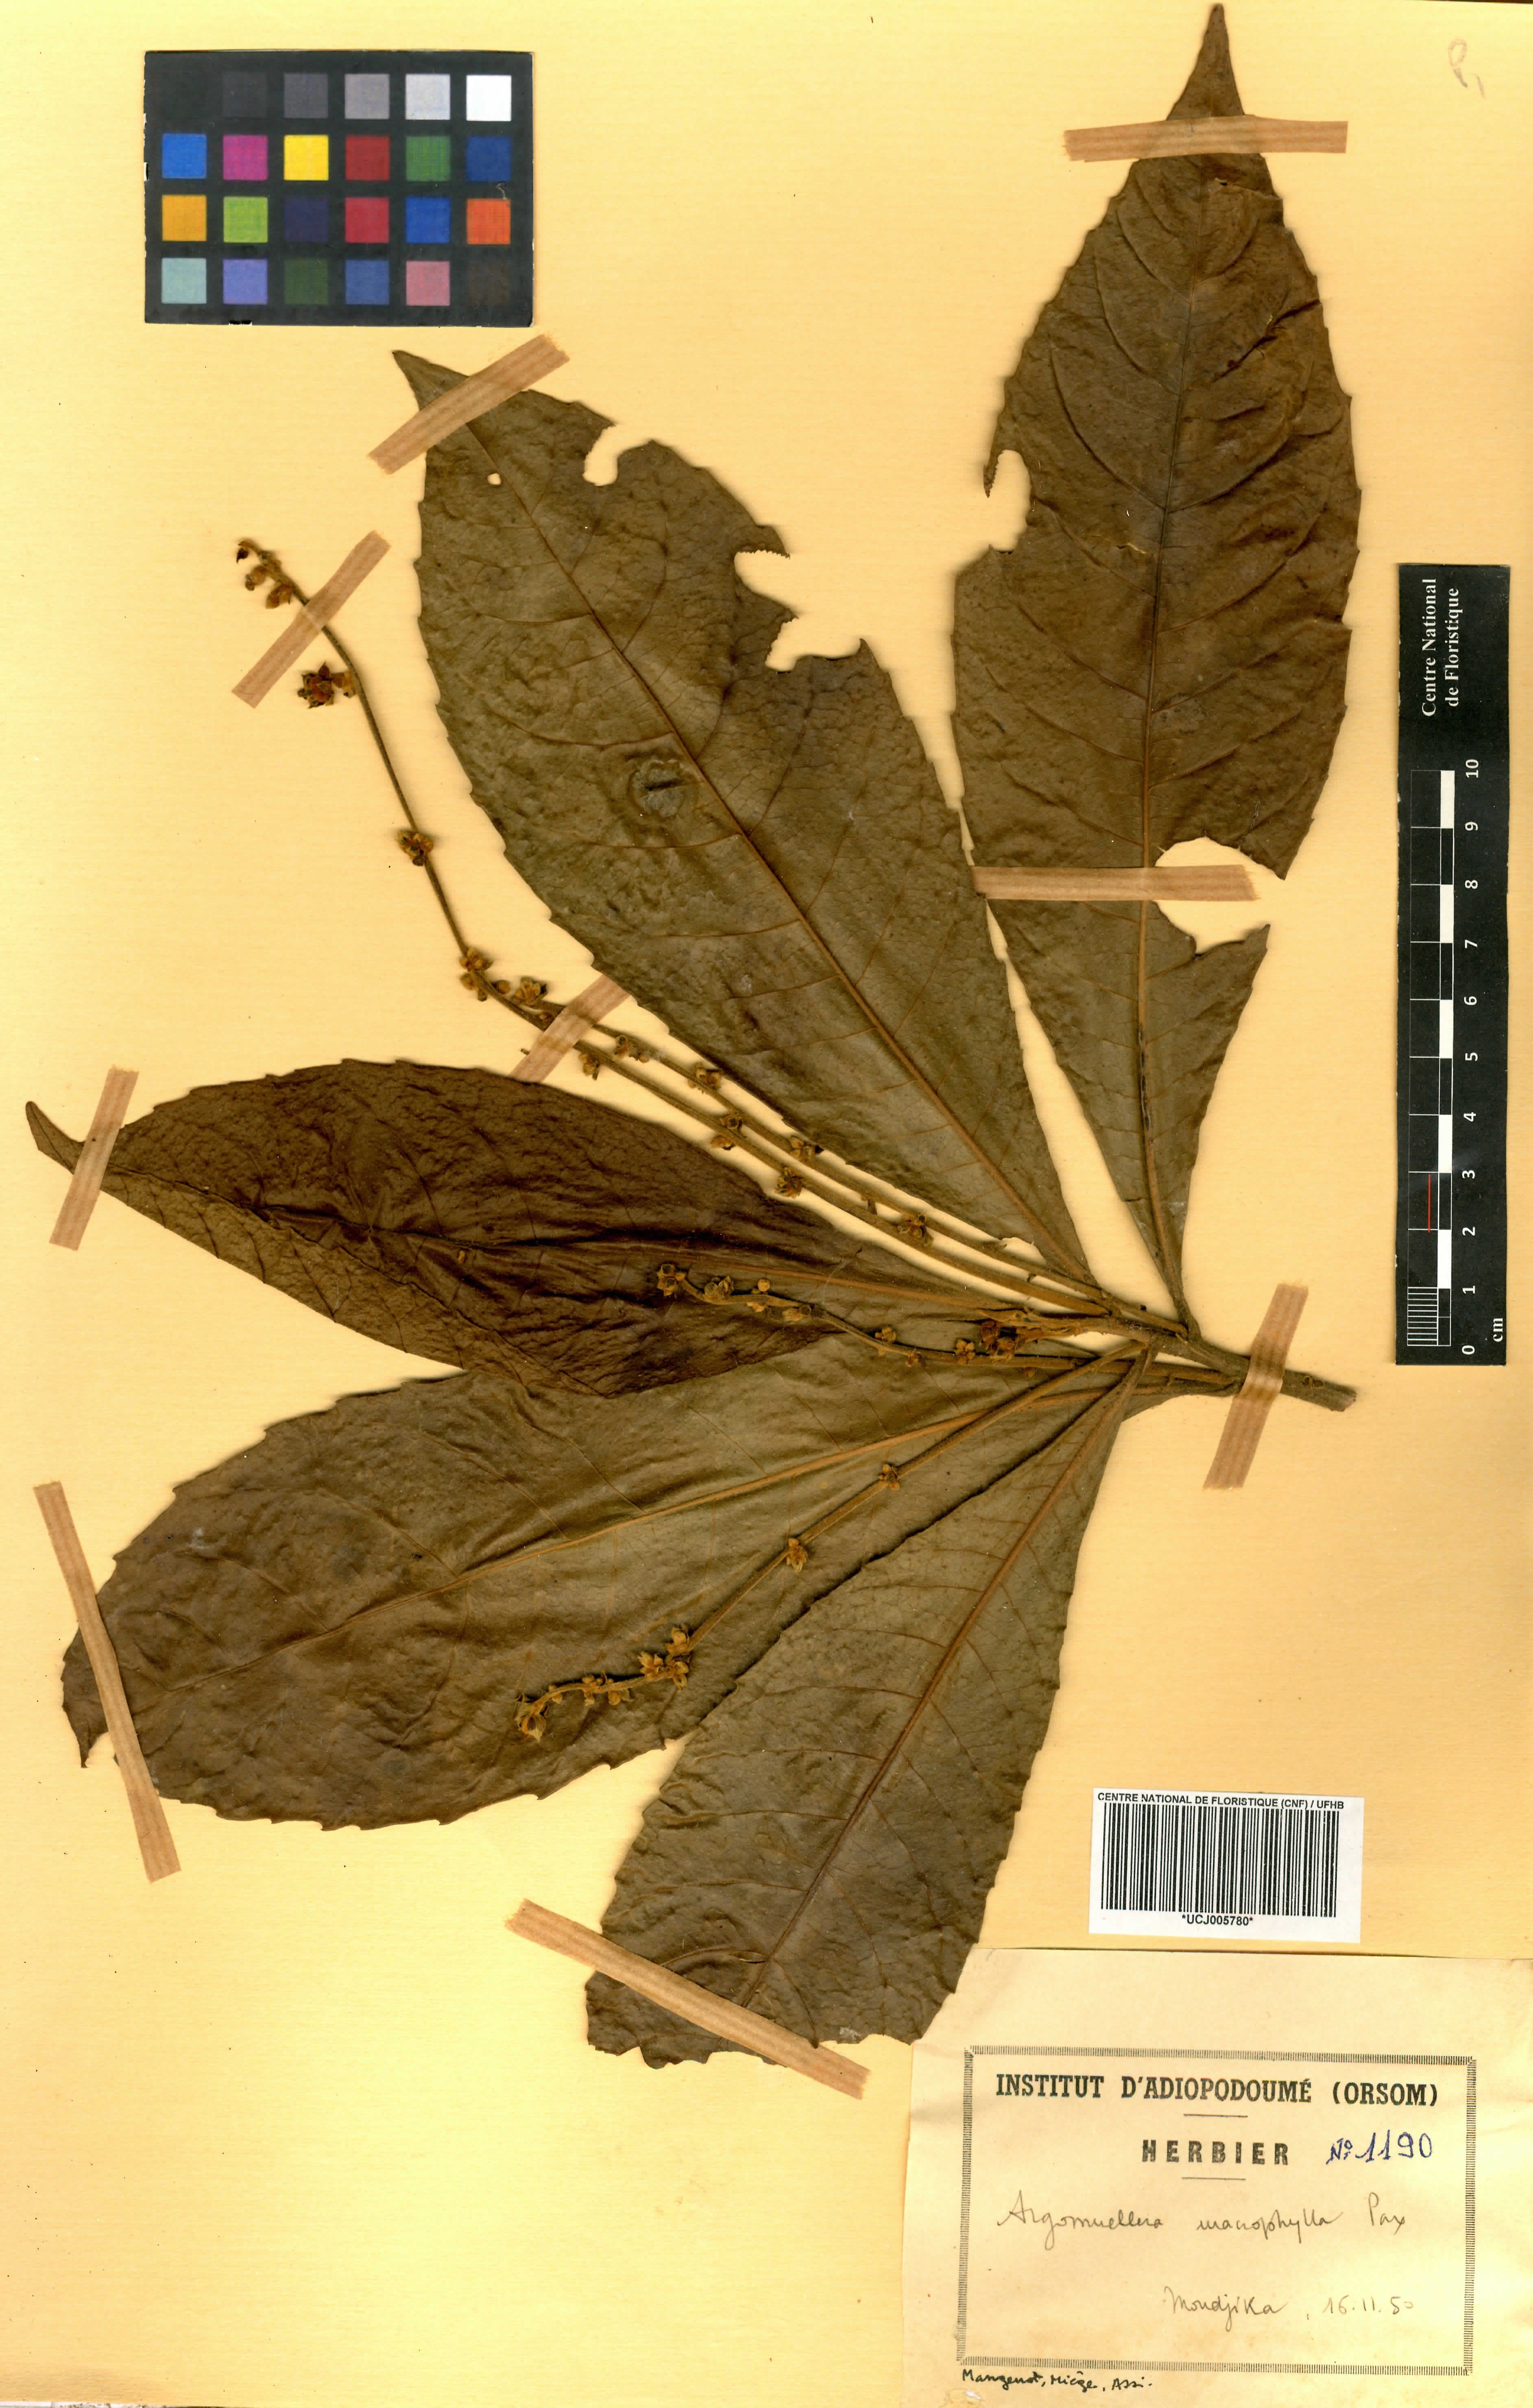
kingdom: Plantae
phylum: Tracheophyta
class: Magnoliopsida
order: Malpighiales
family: Euphorbiaceae
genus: Argomuellera
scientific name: Argomuellera macrophylla
